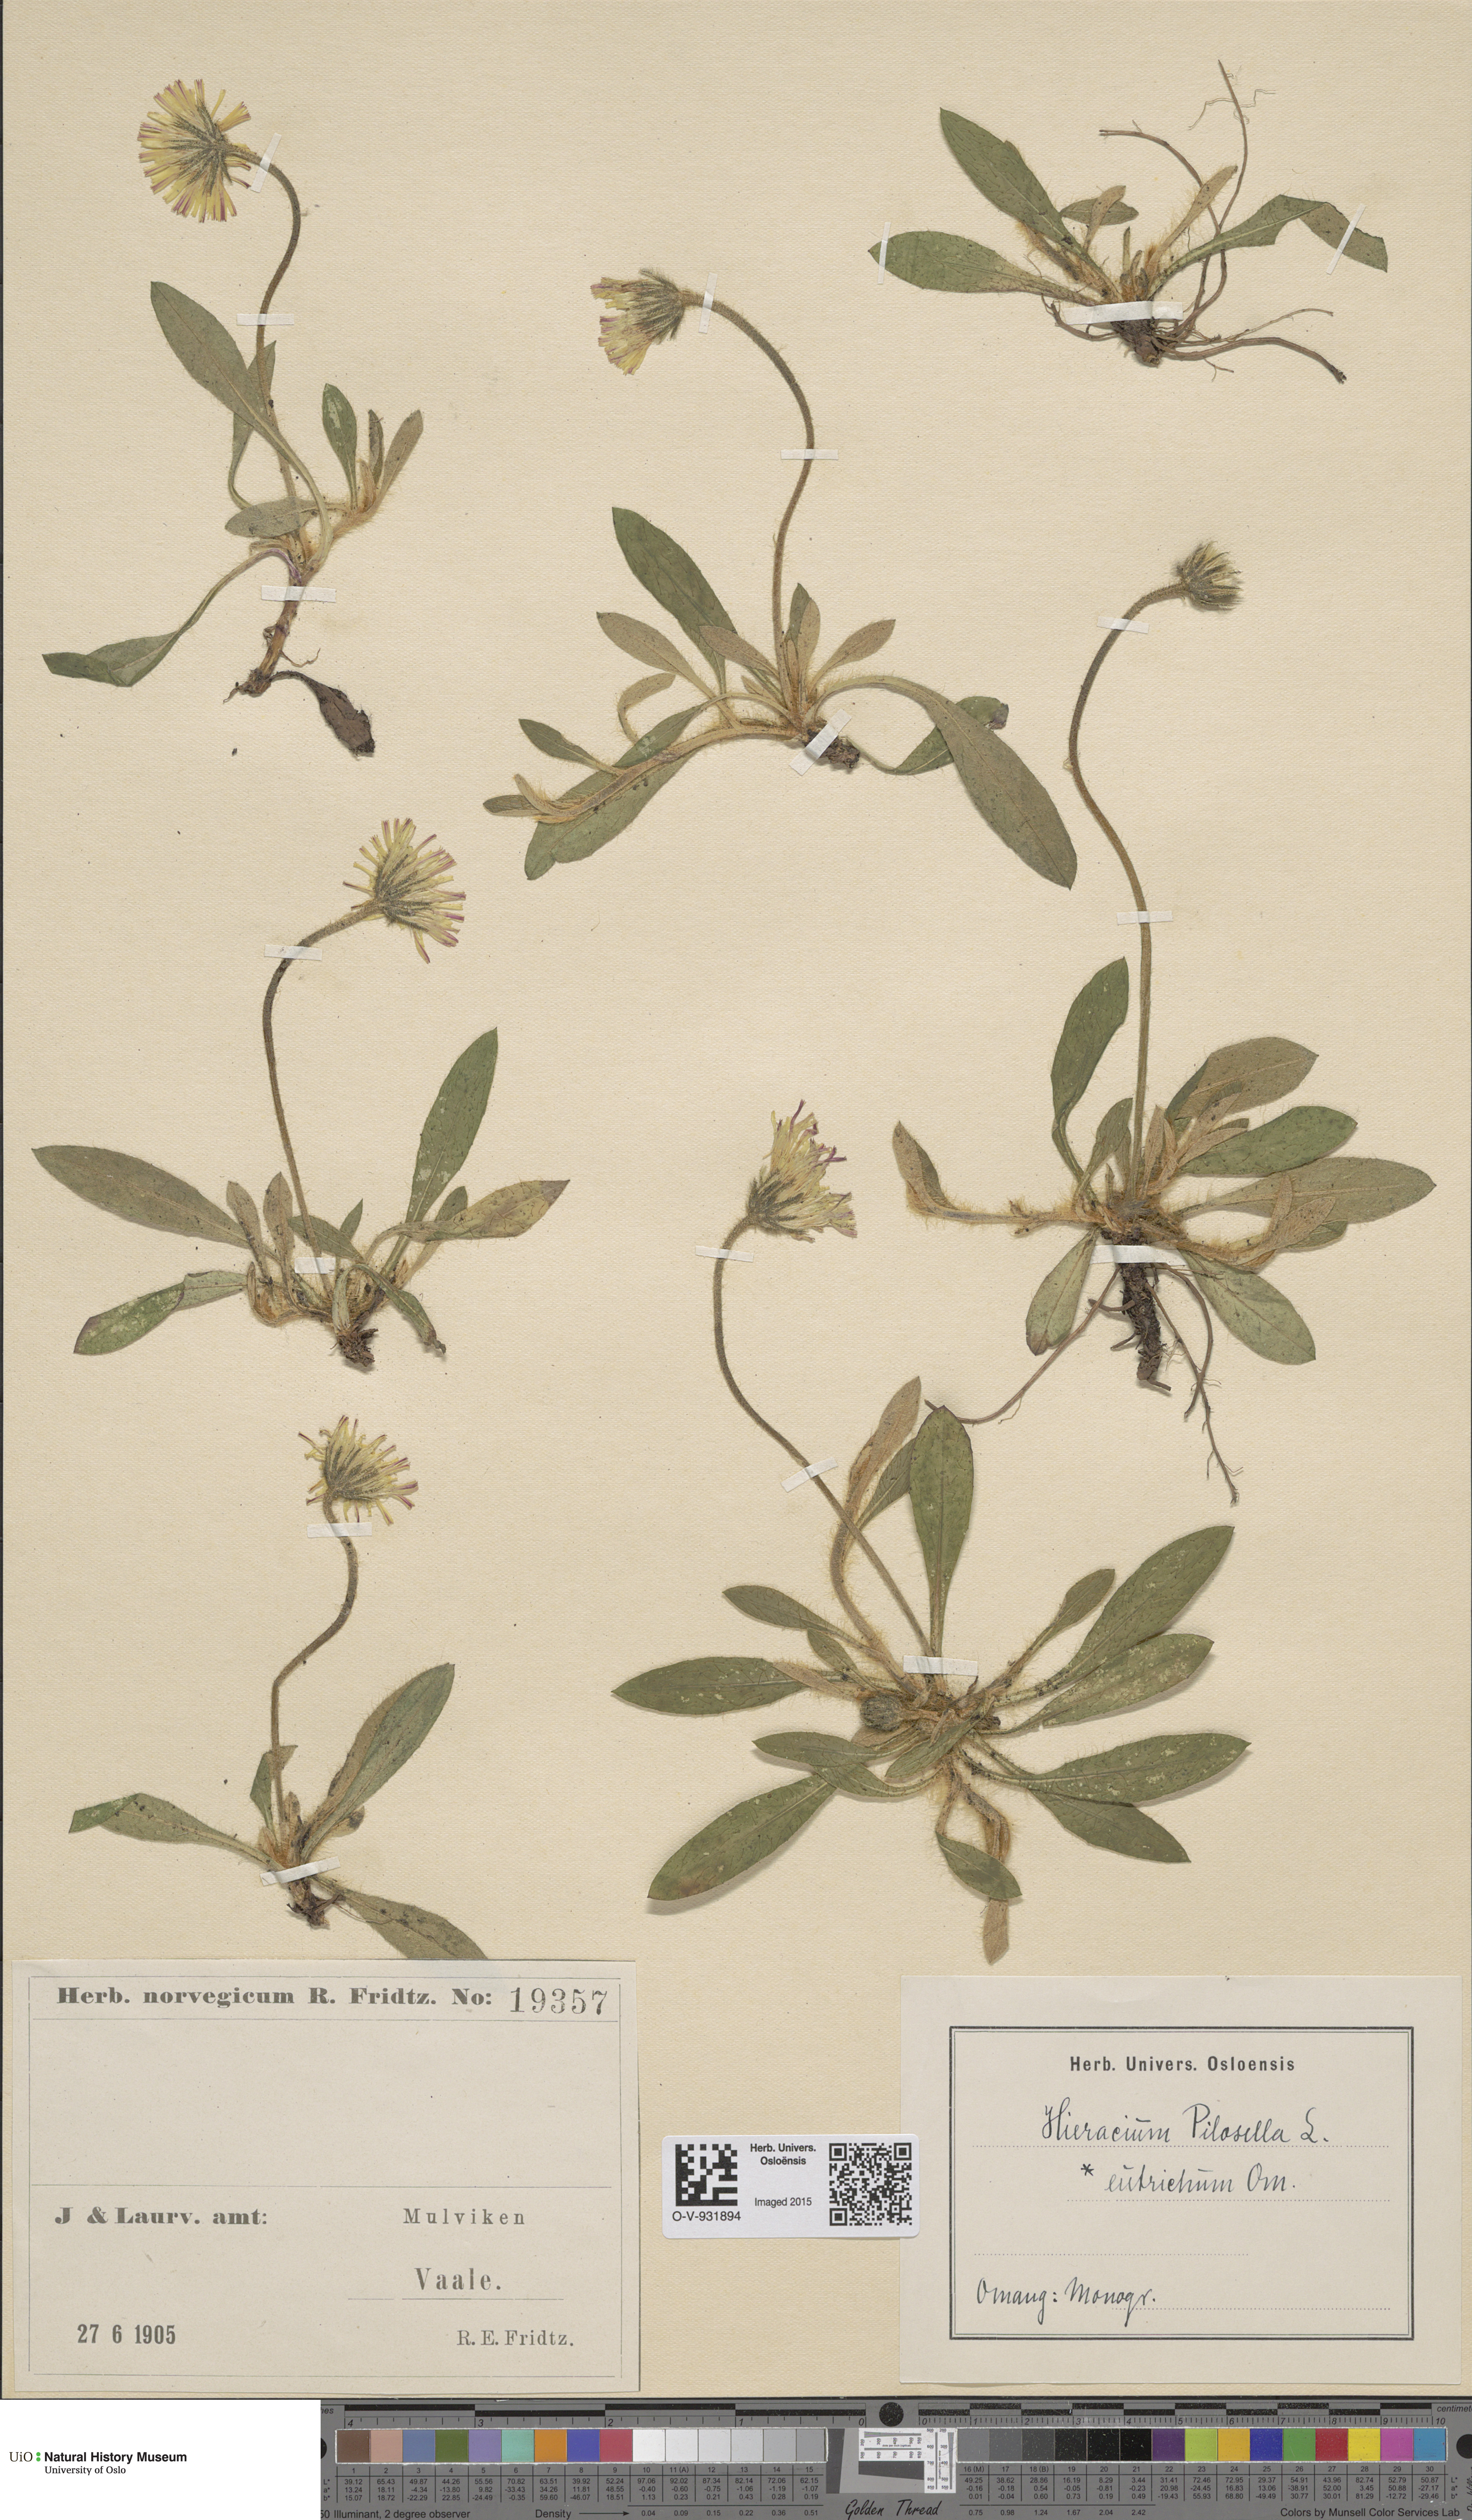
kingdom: Plantae
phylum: Tracheophyta
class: Magnoliopsida
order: Asterales
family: Asteraceae
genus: Pilosella
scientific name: Pilosella officinarum
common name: Mouse-ear hawkweed
